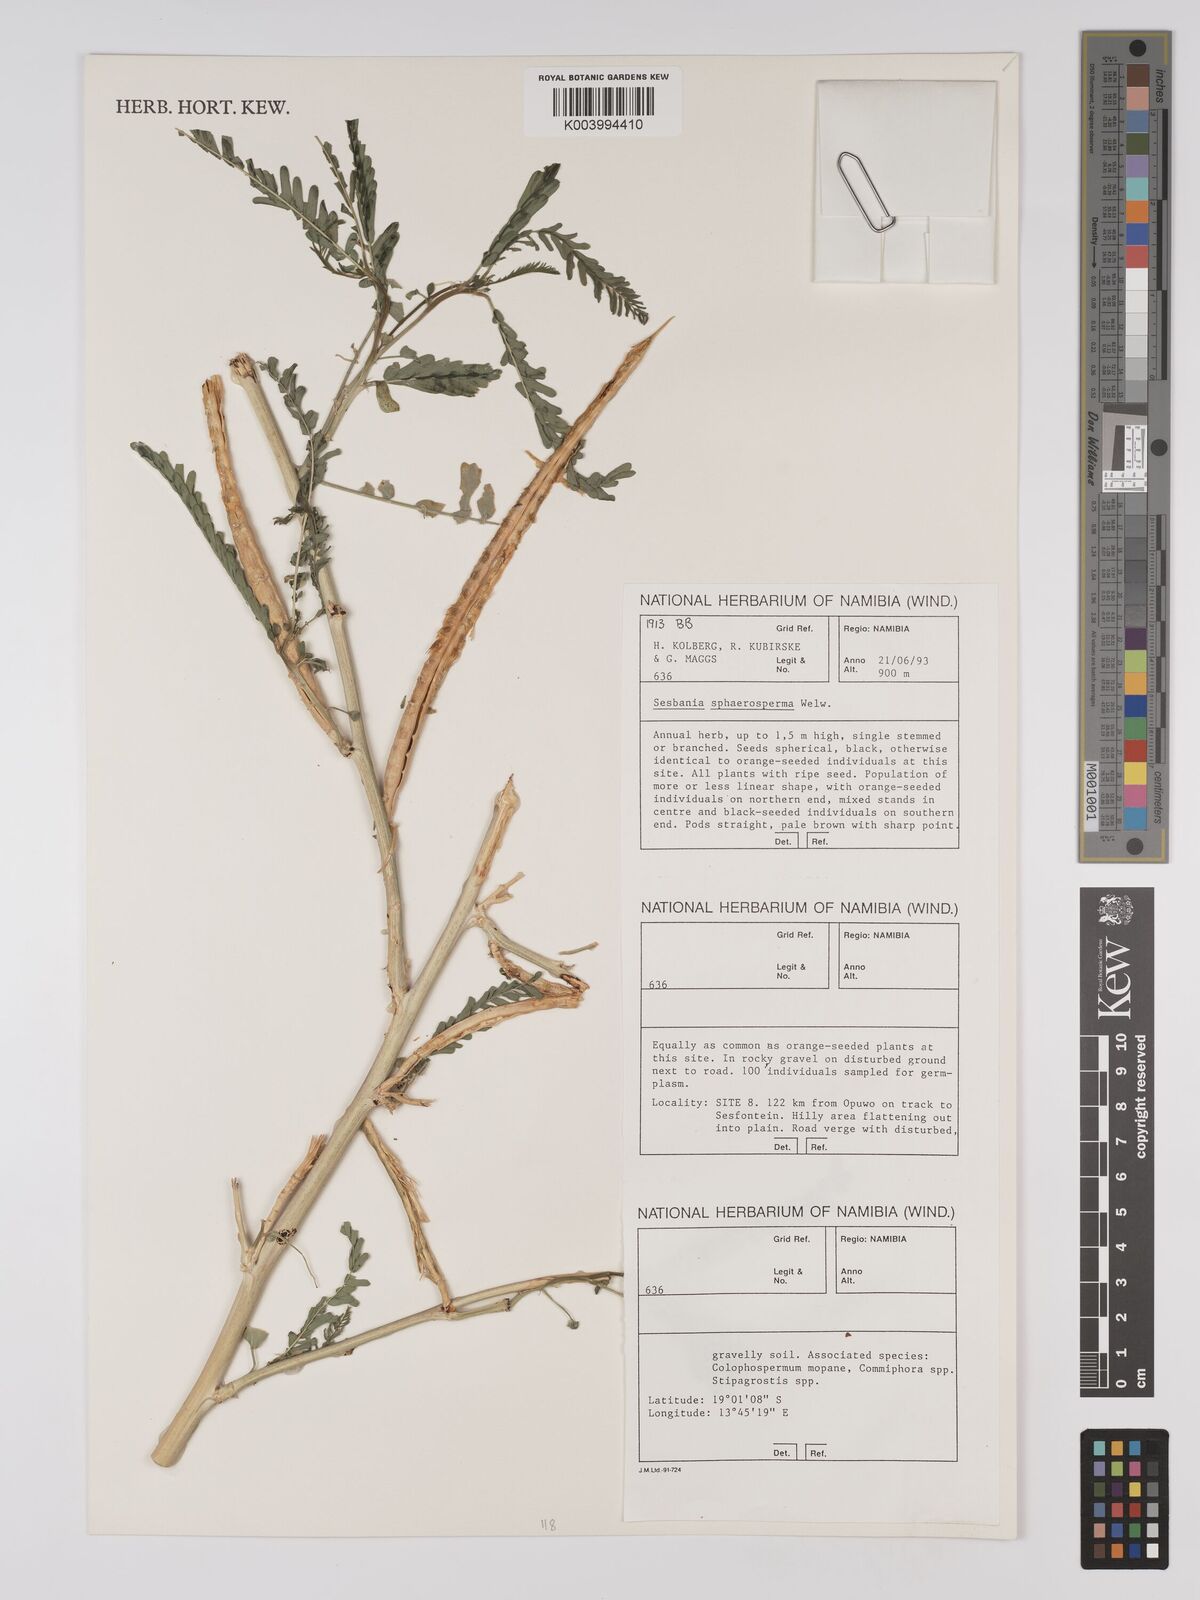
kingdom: Plantae
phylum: Tracheophyta
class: Magnoliopsida
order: Fabales
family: Fabaceae
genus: Sesbania
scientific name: Sesbania sphaerocarpa
